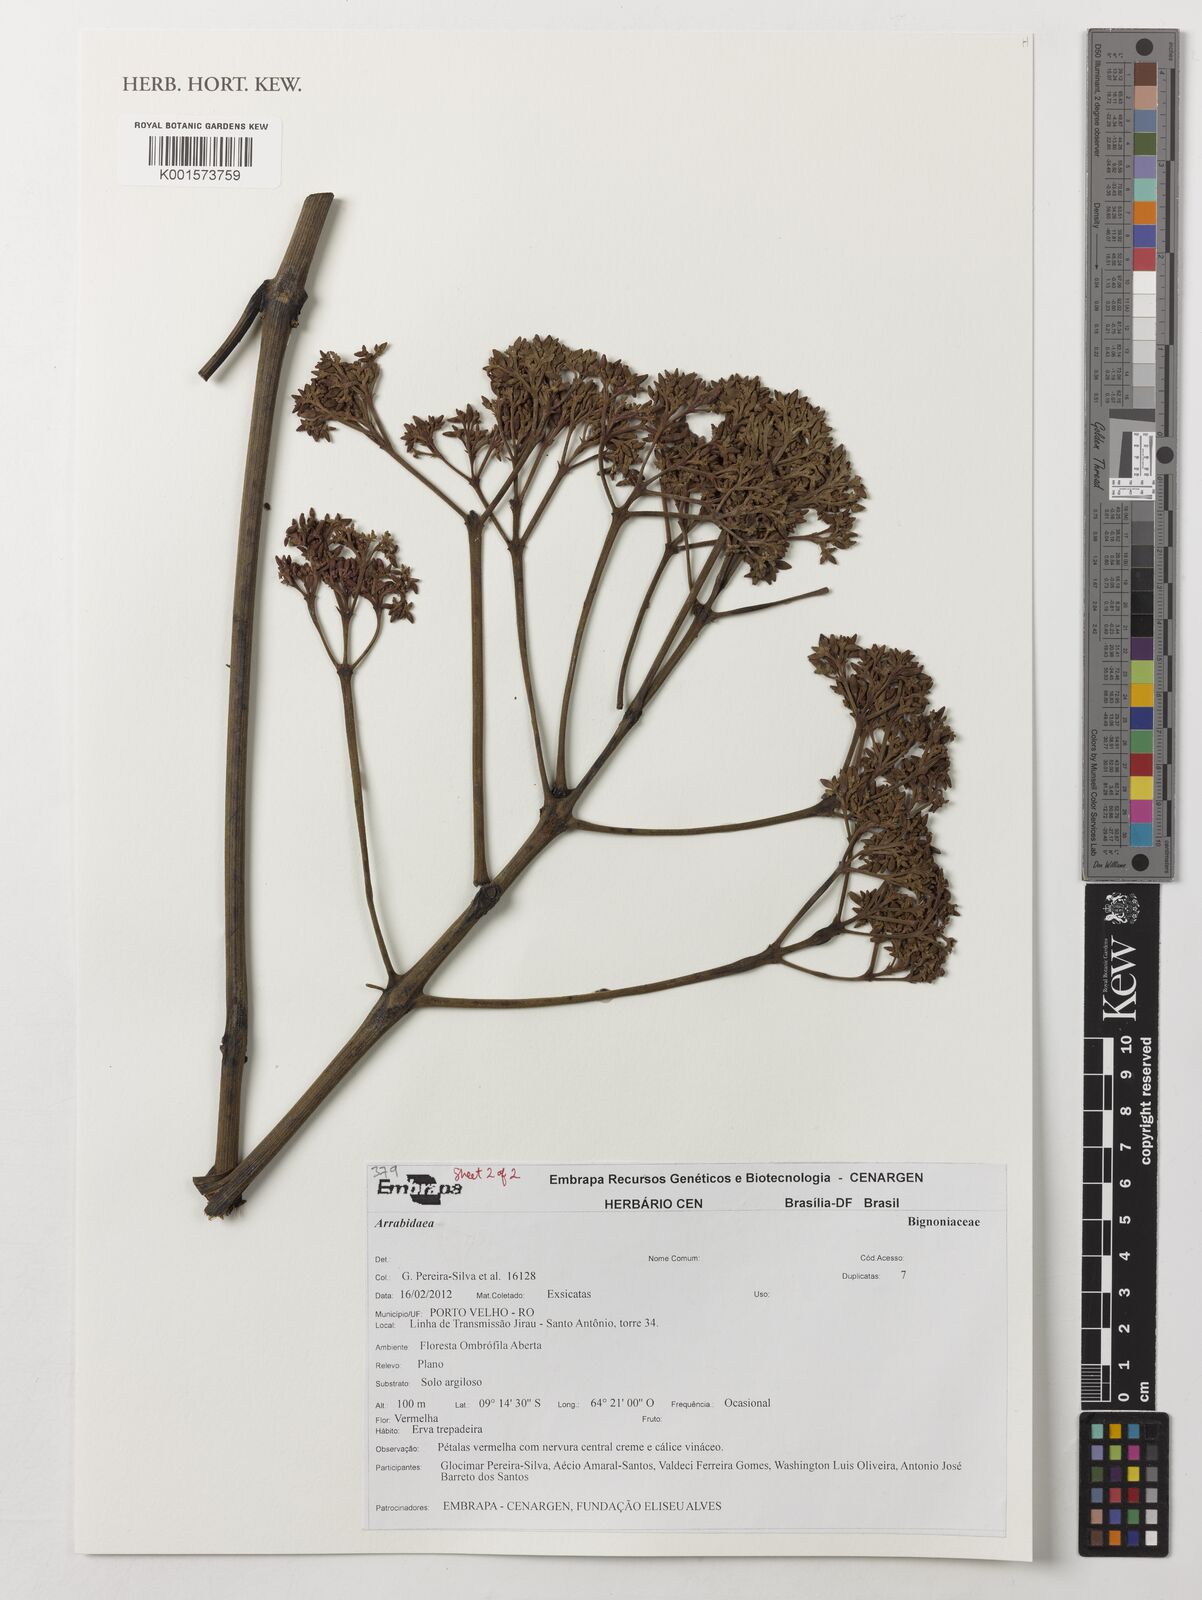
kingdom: Plantae
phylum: Tracheophyta
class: Magnoliopsida
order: Rosales
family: Rhamnaceae
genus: Arrabidaea
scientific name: Arrabidaea
